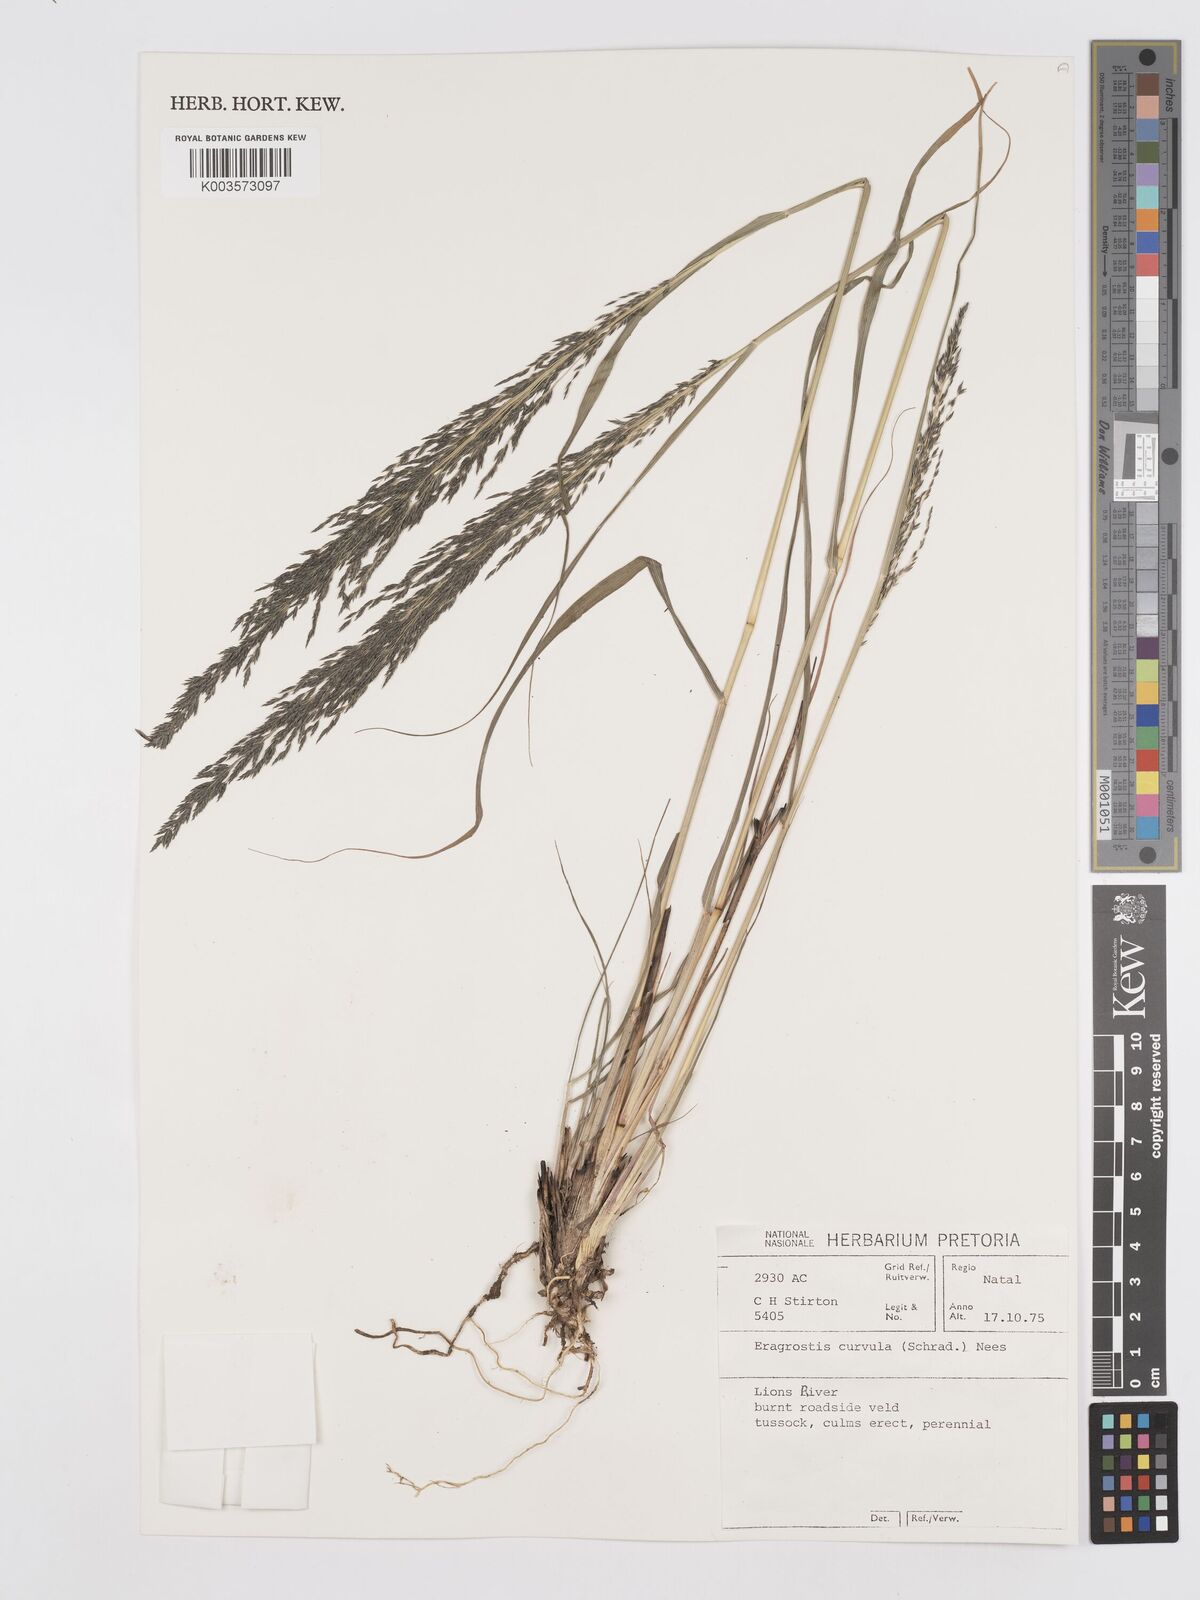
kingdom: Plantae
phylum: Tracheophyta
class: Liliopsida
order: Poales
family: Poaceae
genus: Eragrostis
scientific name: Eragrostis curvula
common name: African love-grass
